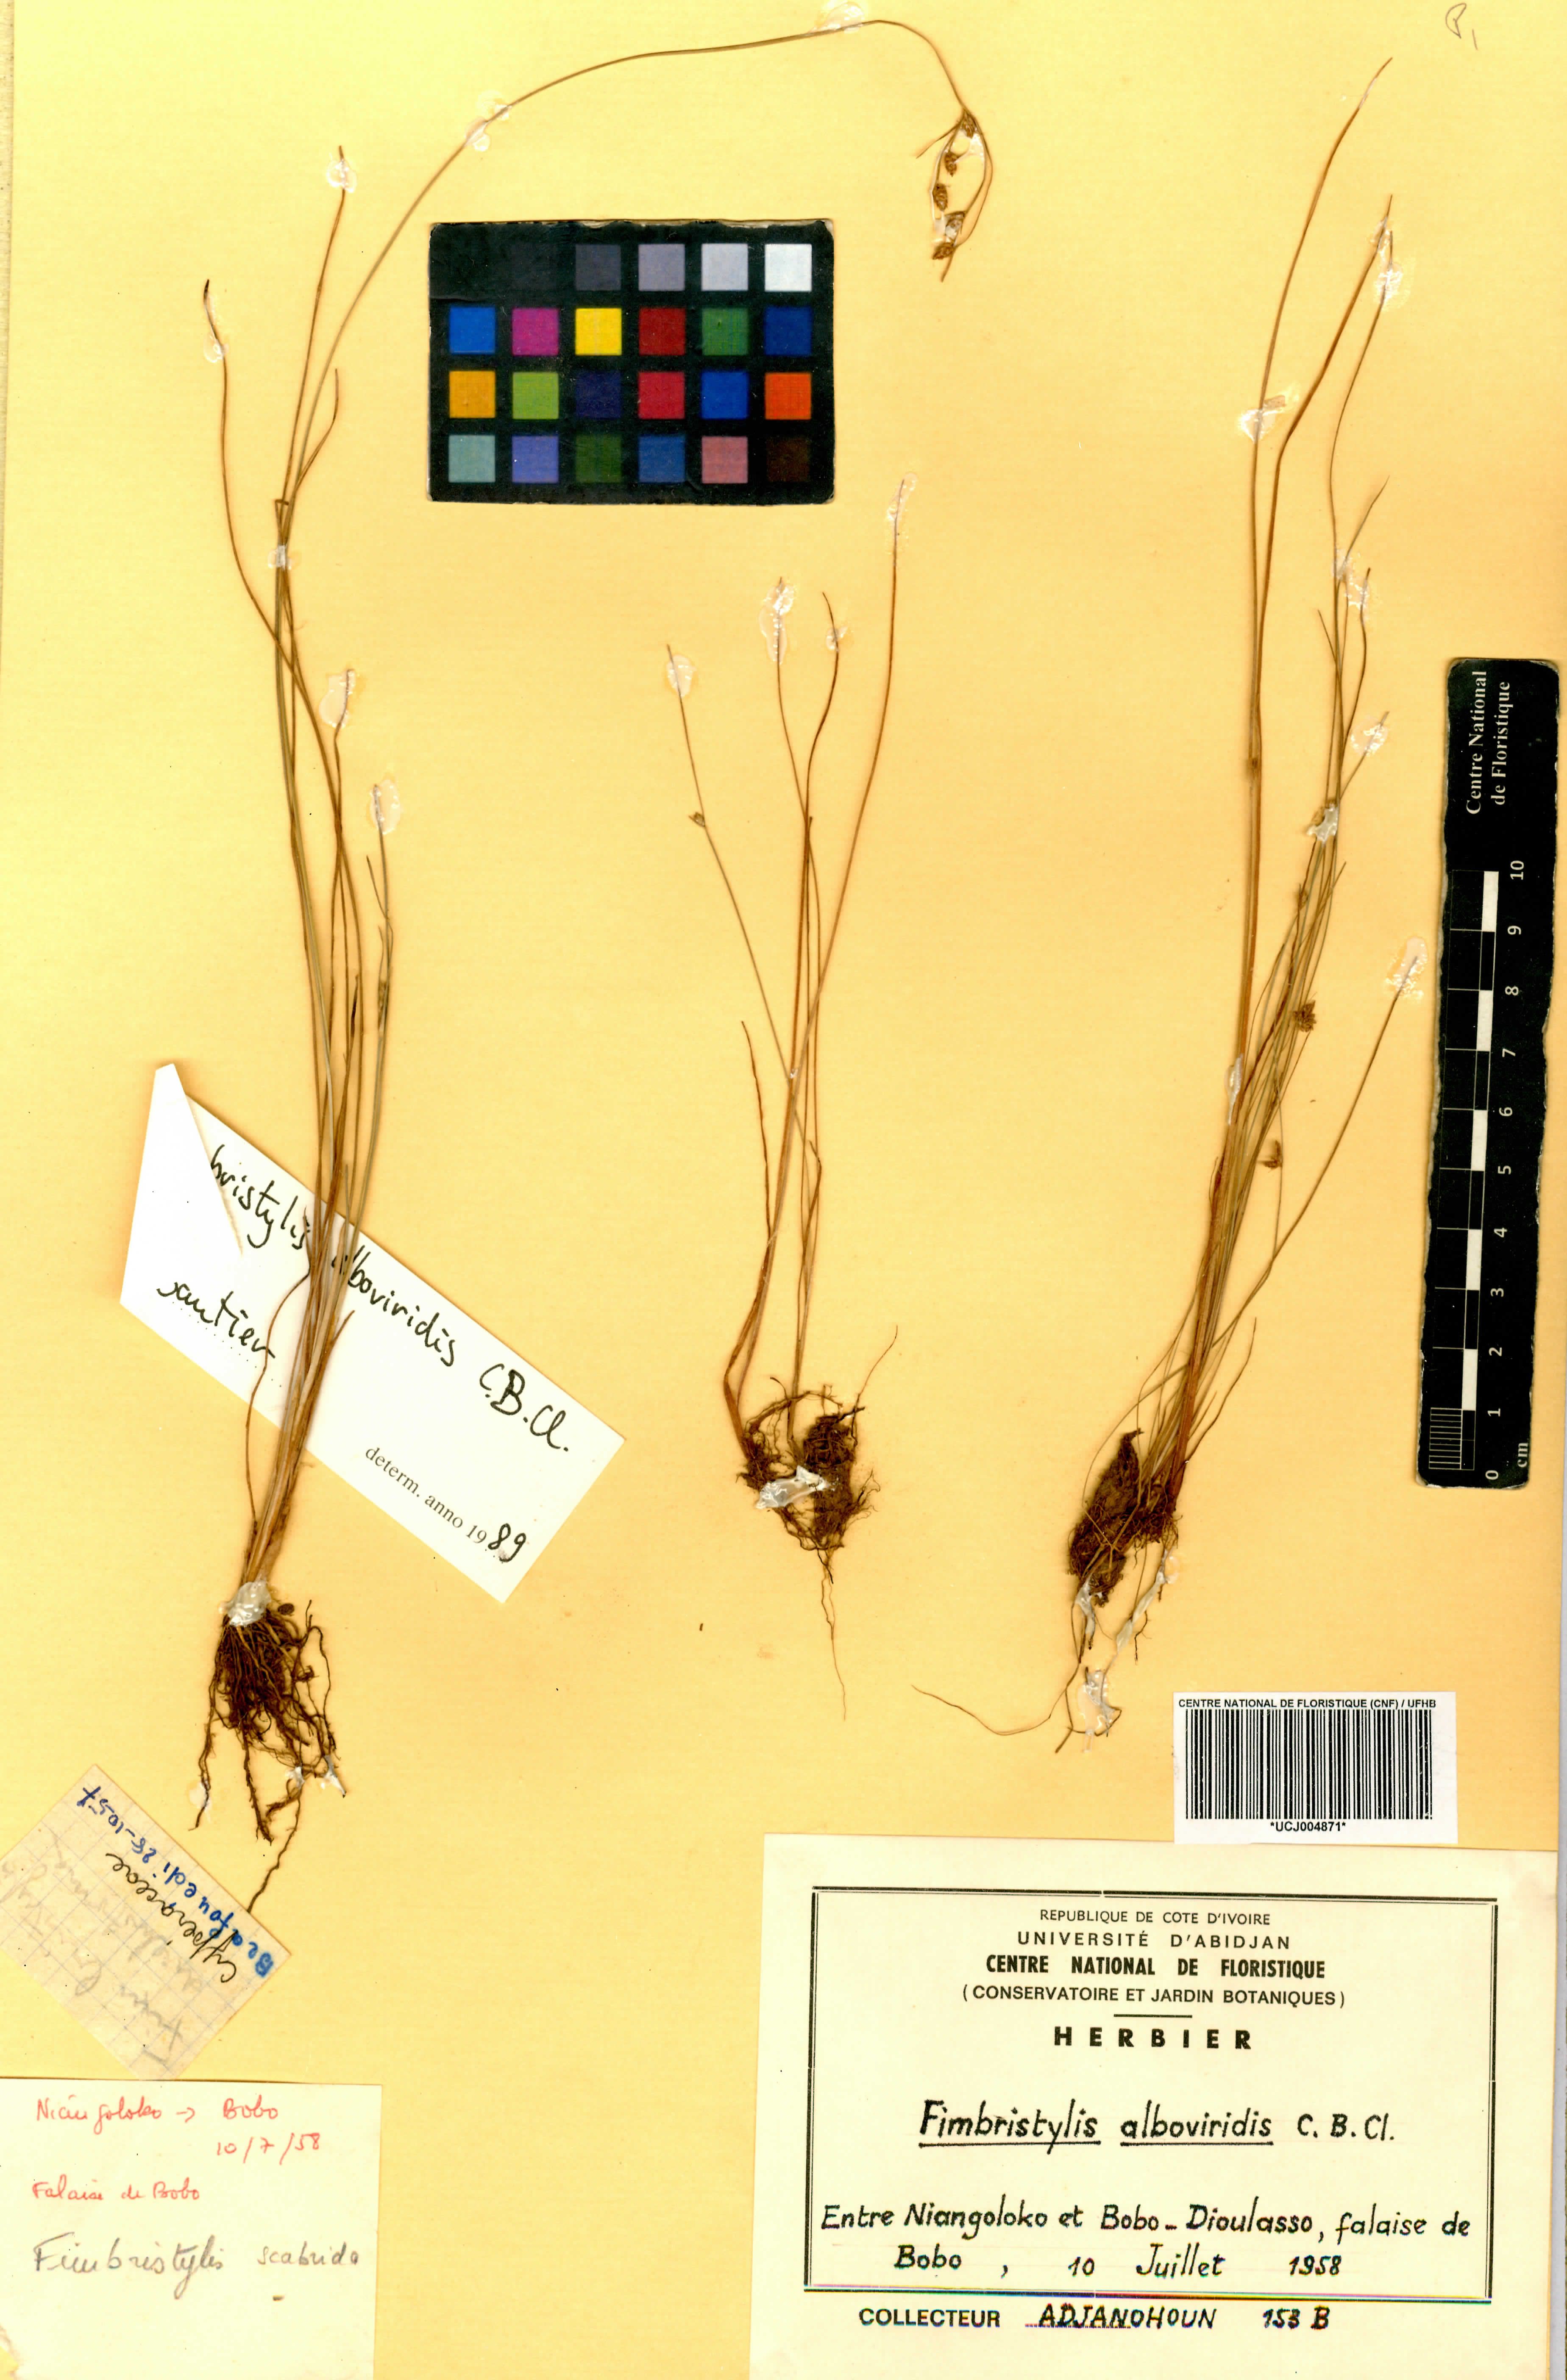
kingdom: Plantae
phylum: Tracheophyta
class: Liliopsida
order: Poales
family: Cyperaceae
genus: Fimbristylis
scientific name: Fimbristylis alboviridis
